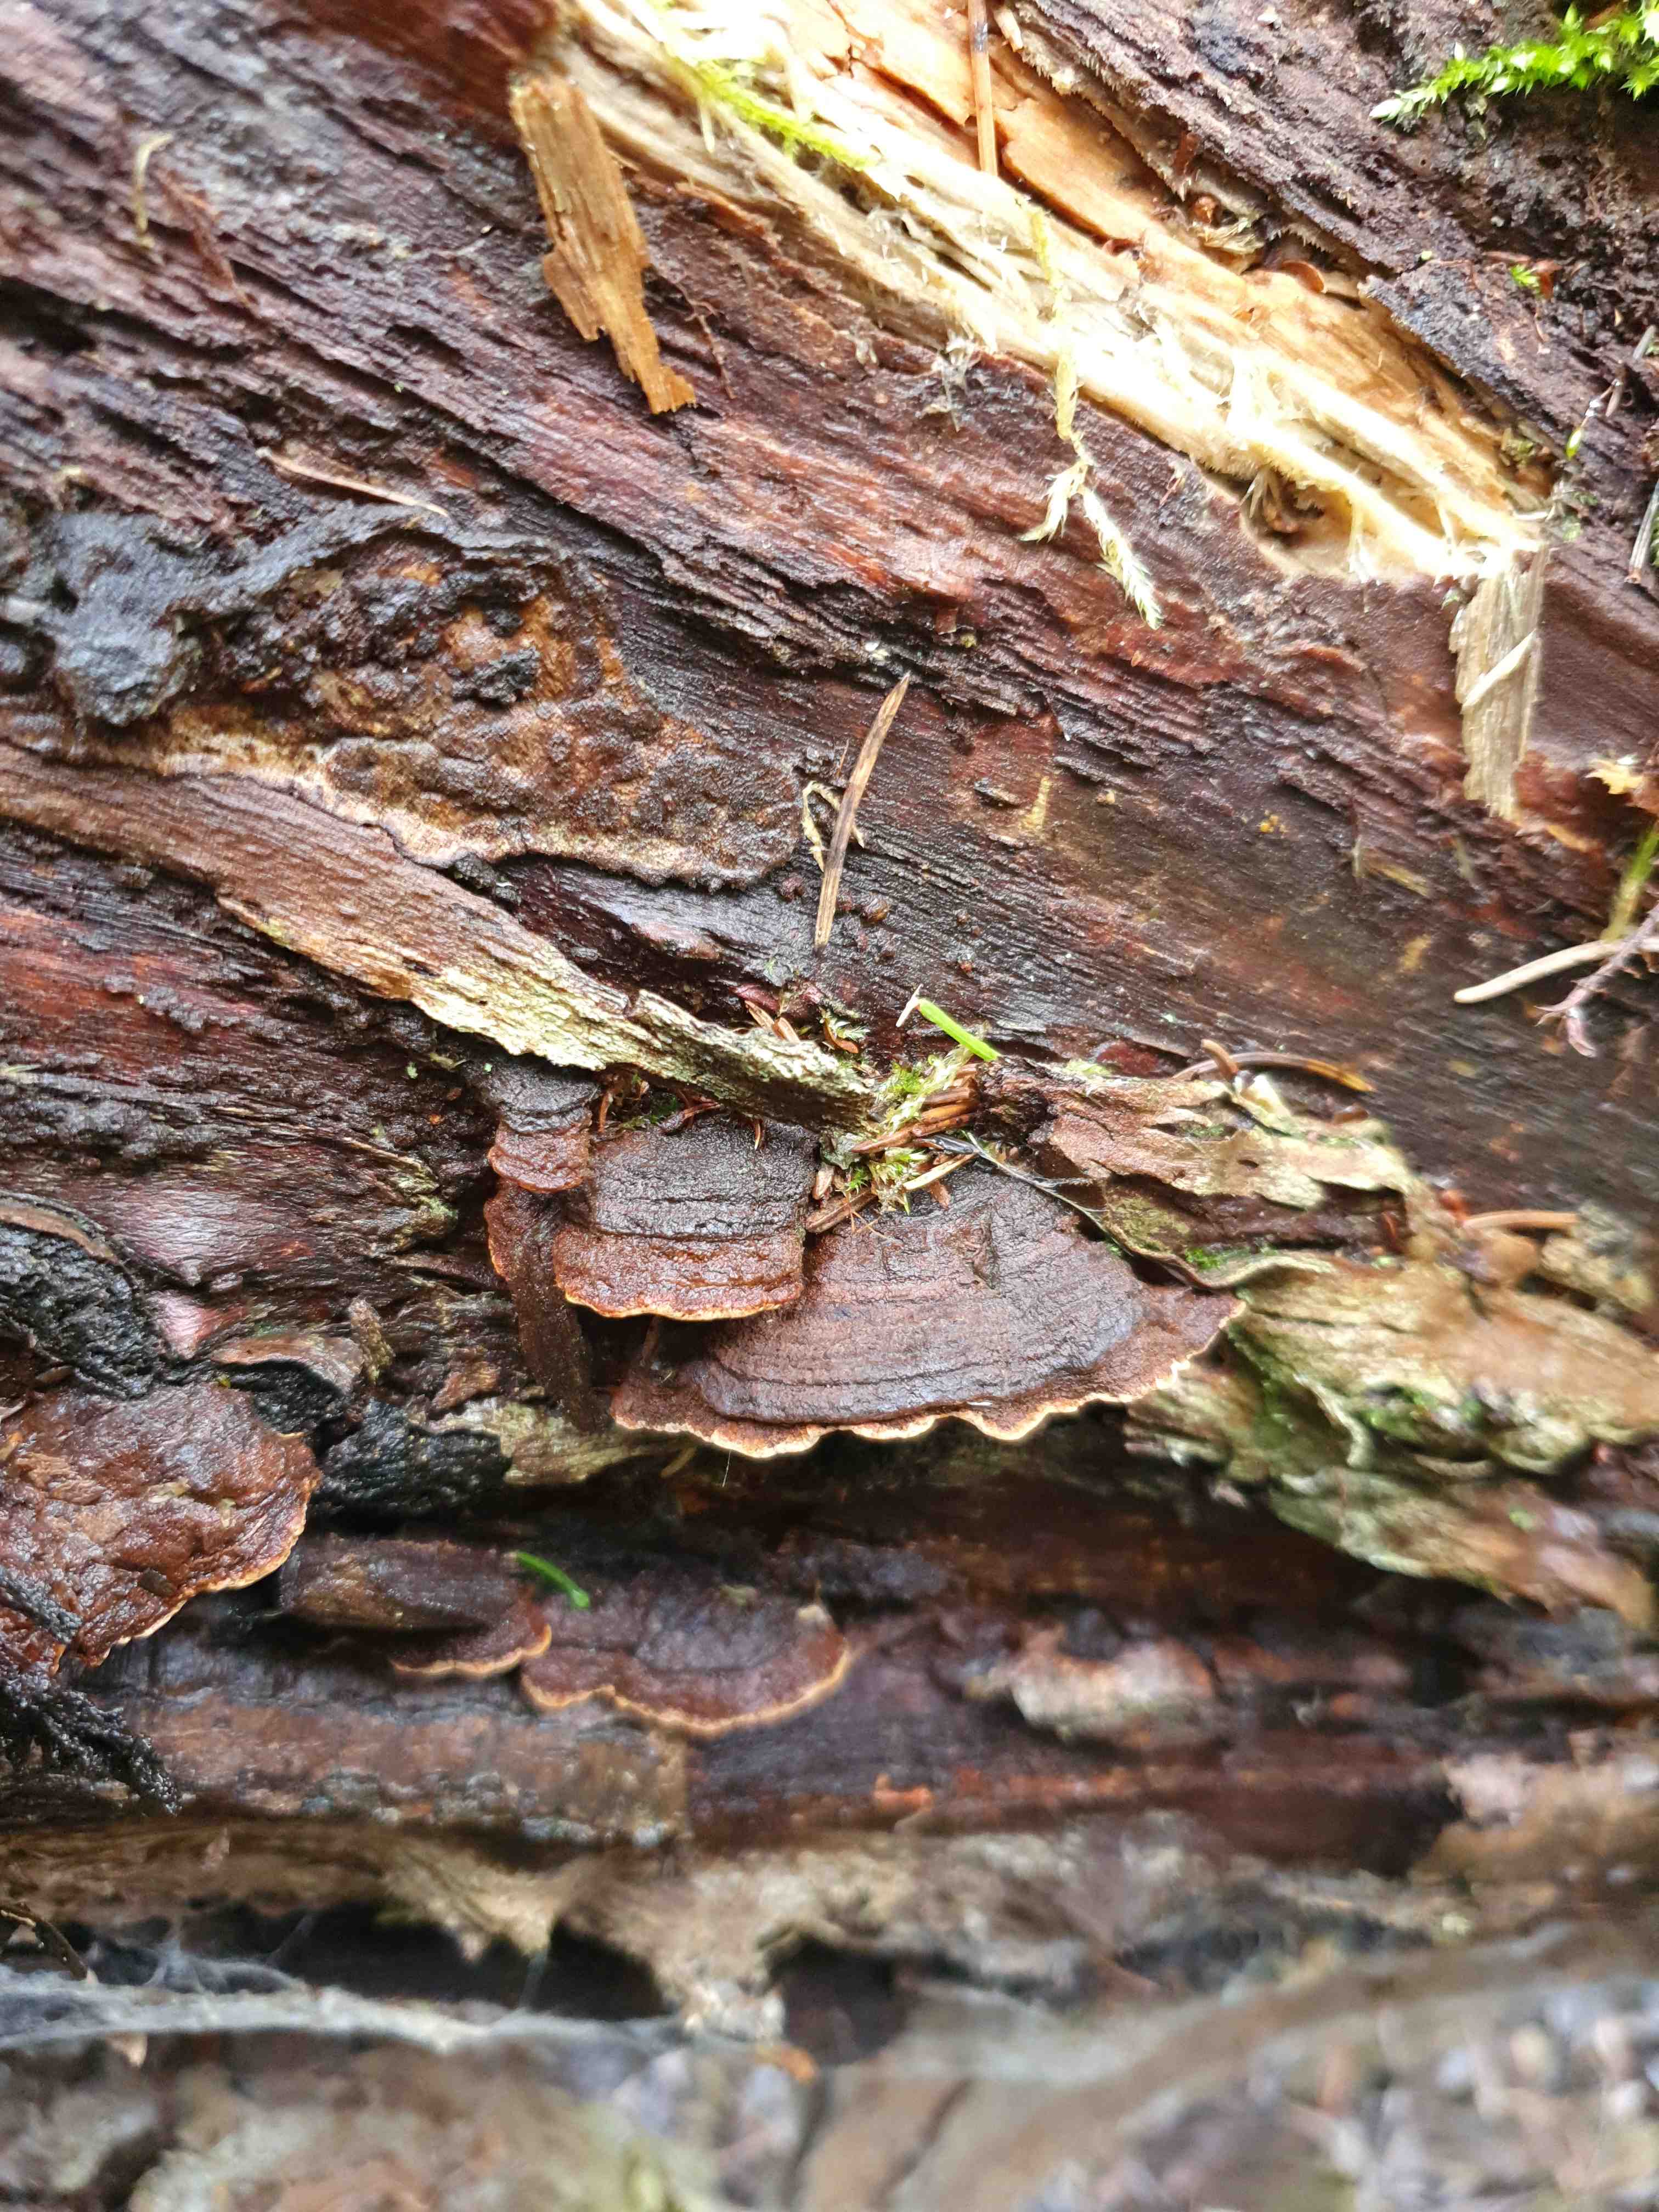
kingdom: Fungi
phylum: Basidiomycota
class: Agaricomycetes
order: Hymenochaetales
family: Hymenochaetaceae
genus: Phellinopsis
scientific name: Phellinopsis conchata
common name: pile-ildporesvamp
